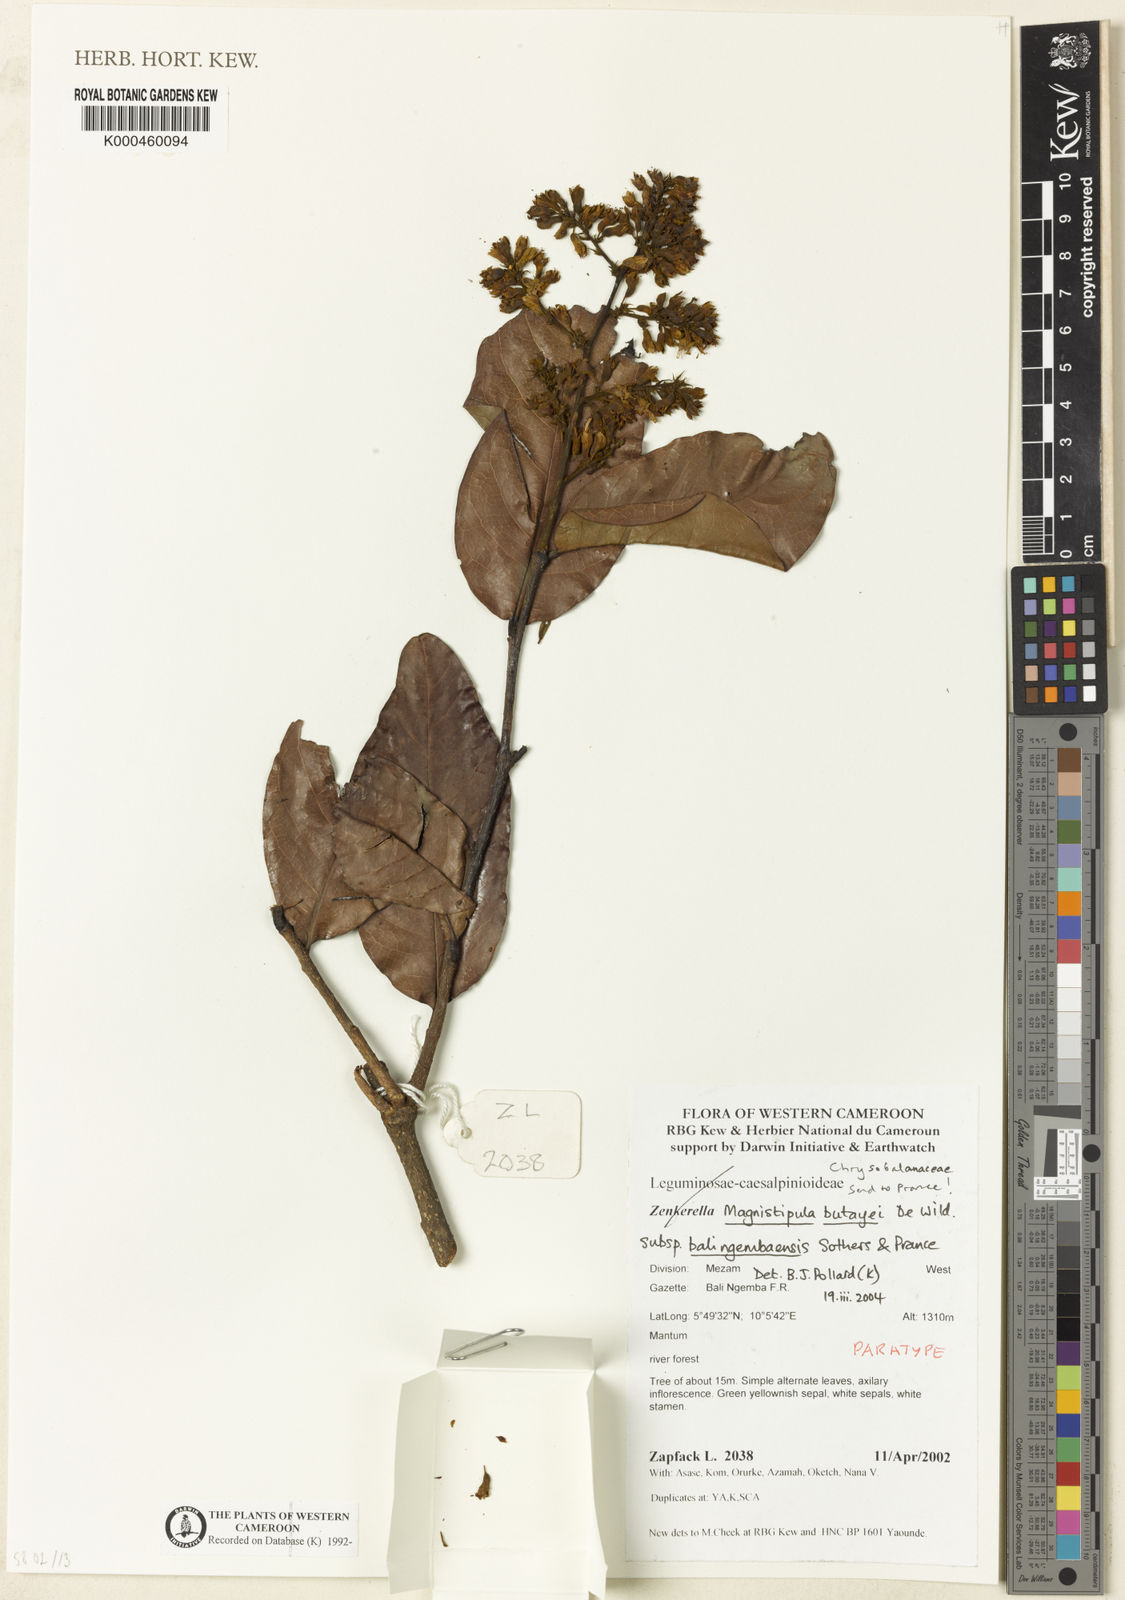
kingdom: Plantae
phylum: Tracheophyta
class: Magnoliopsida
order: Malpighiales
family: Chrysobalanaceae
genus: Magnistipula
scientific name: Magnistipula butayei
